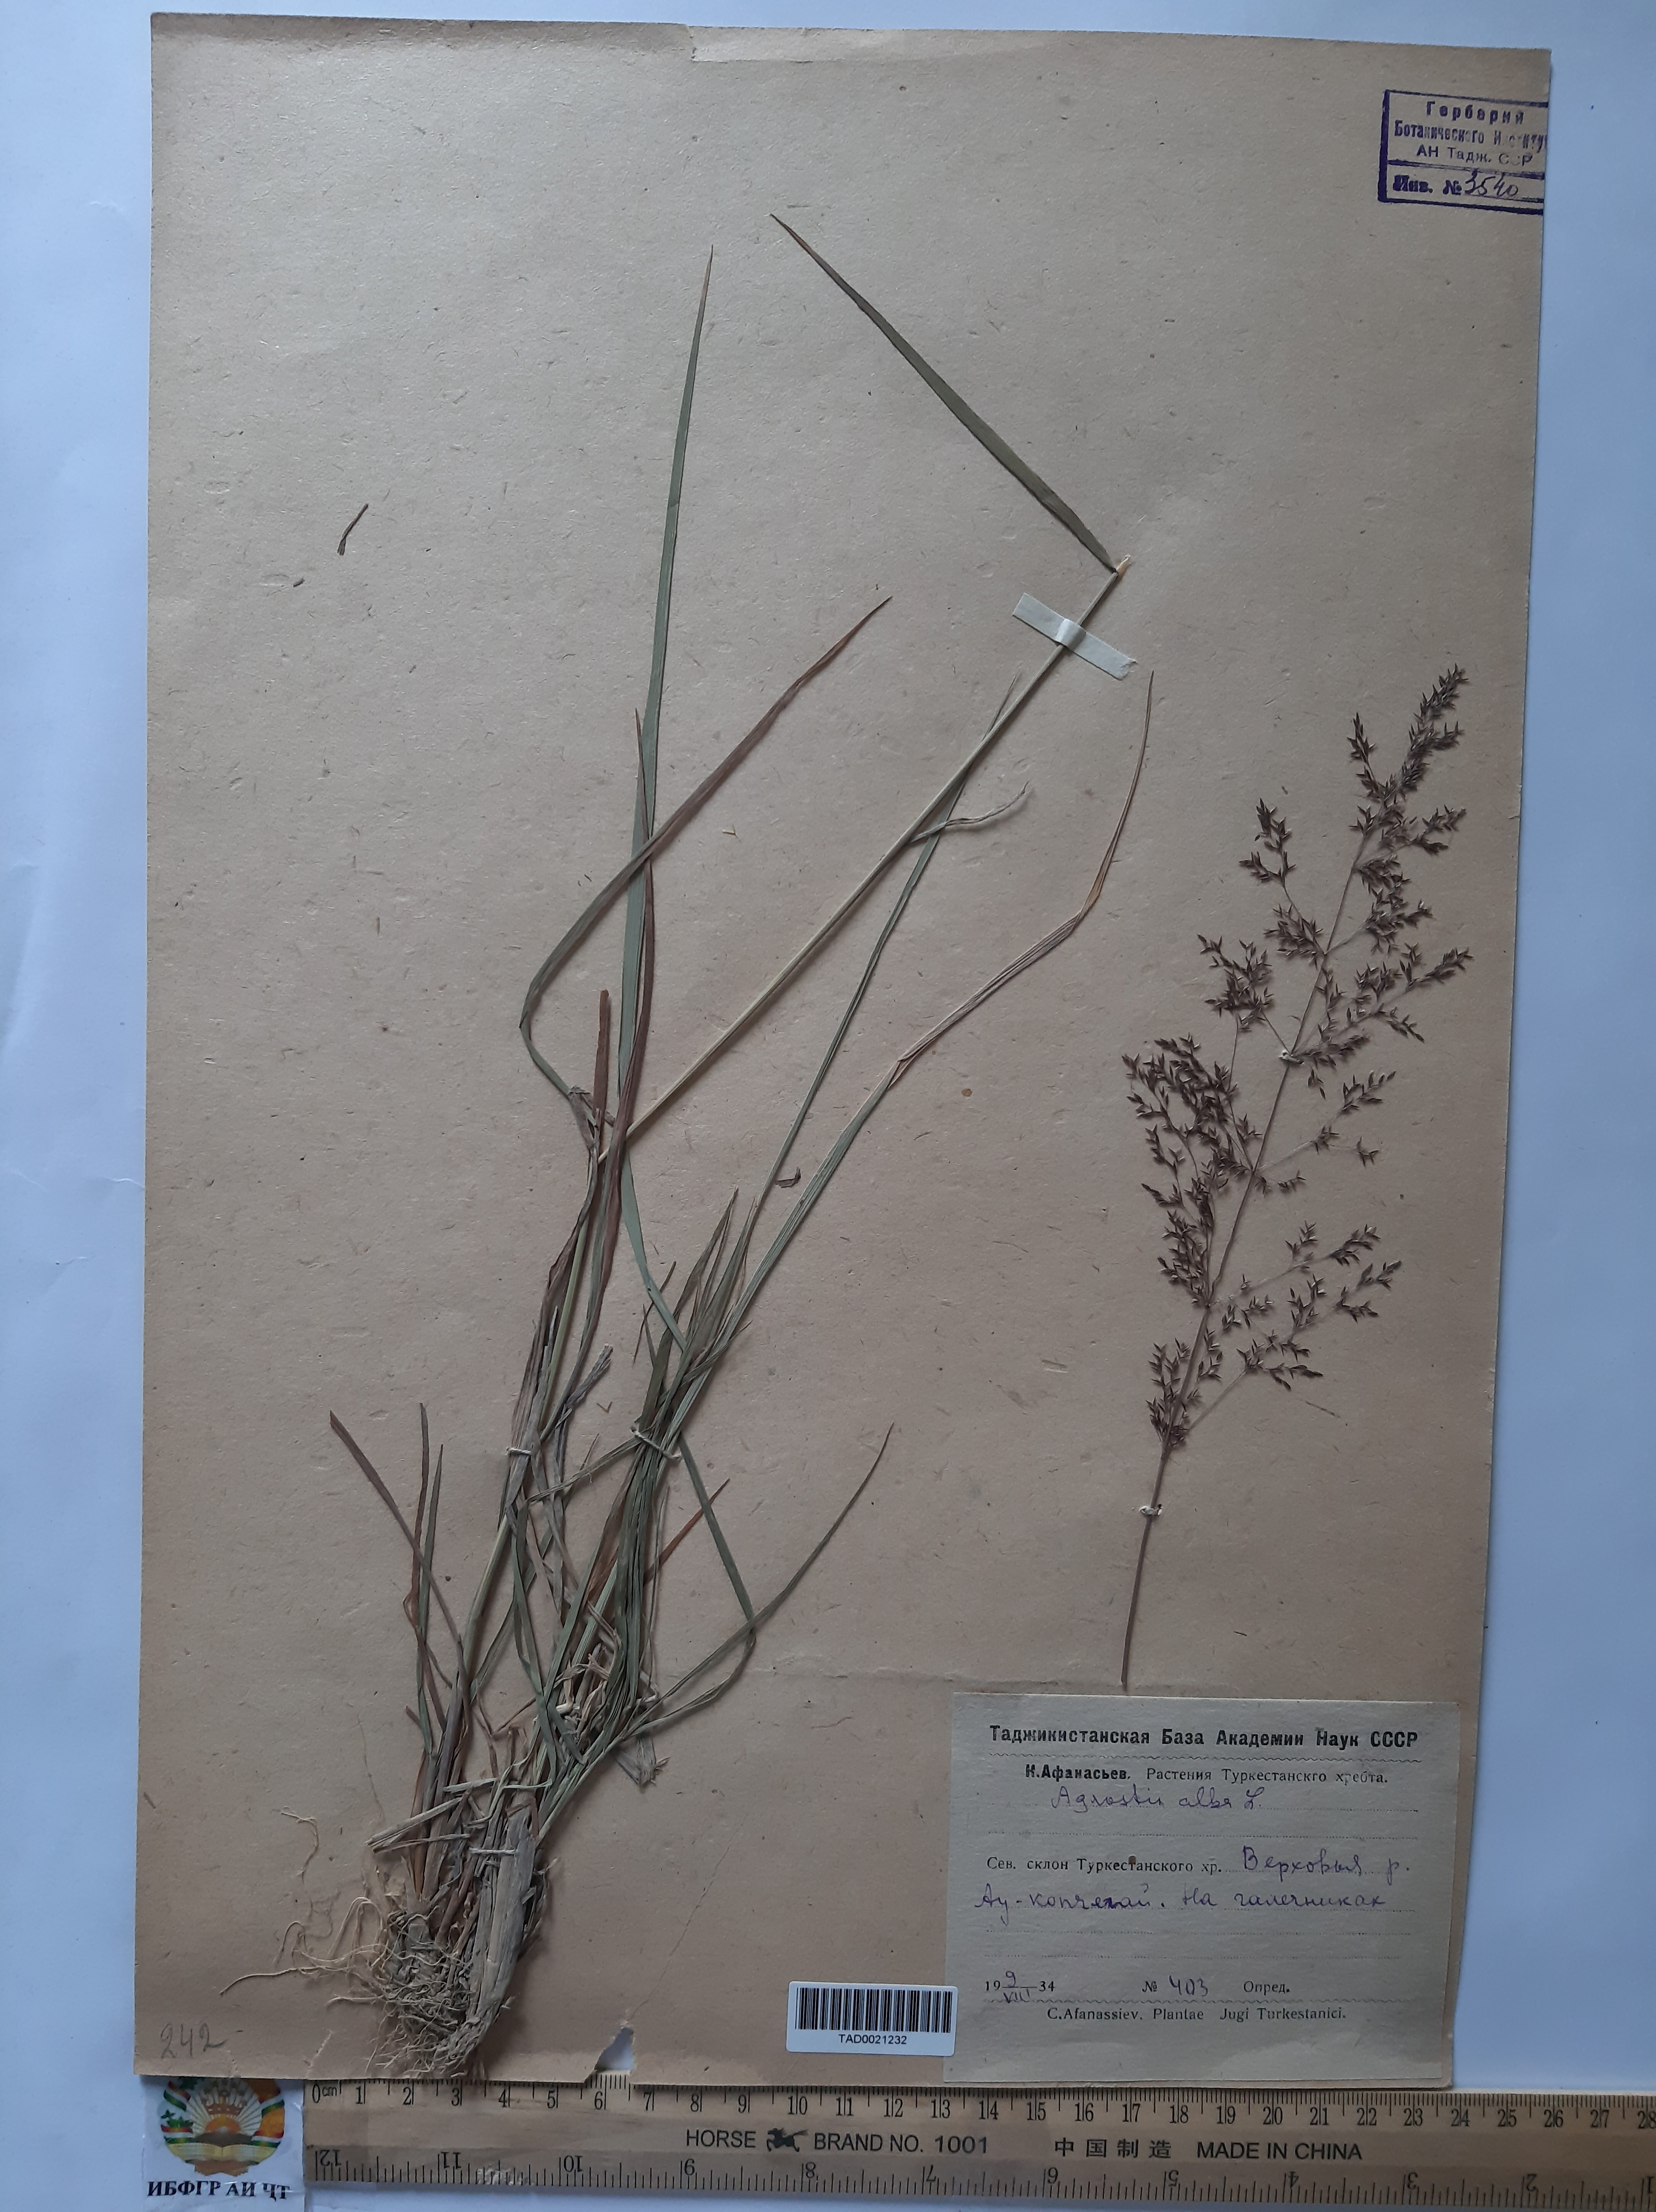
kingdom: Plantae
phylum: Tracheophyta
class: Liliopsida
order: Poales
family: Poaceae
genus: Poa
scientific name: Poa nemoralis
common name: Wood bluegrass
